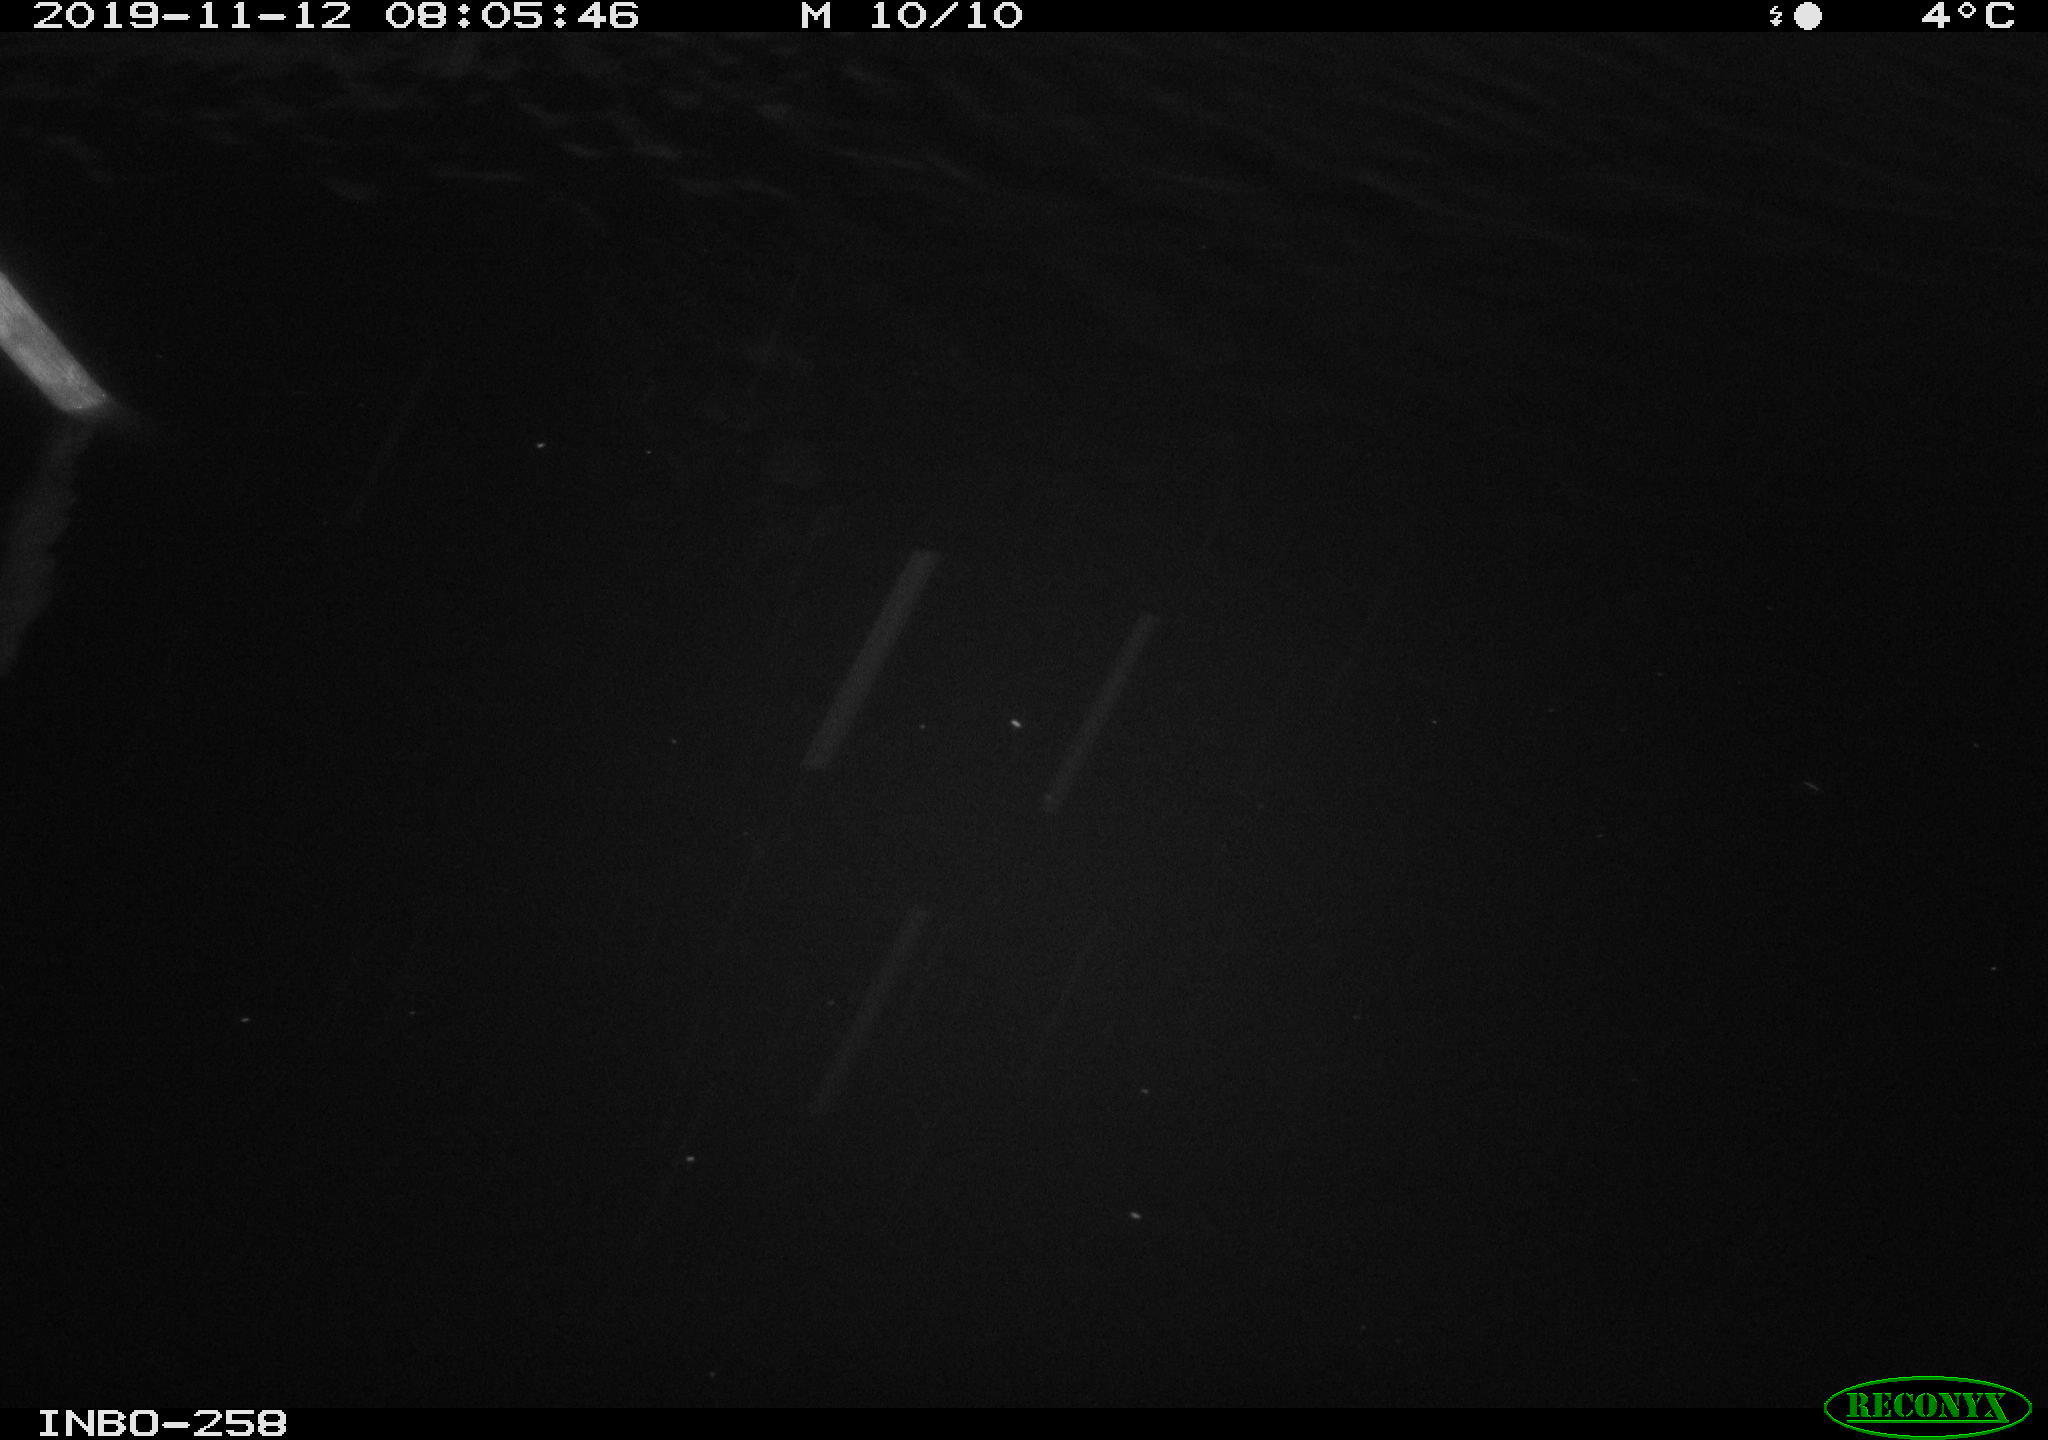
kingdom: Animalia
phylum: Chordata
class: Aves
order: Anseriformes
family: Anatidae
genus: Anas
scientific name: Anas platyrhynchos
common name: Mallard
